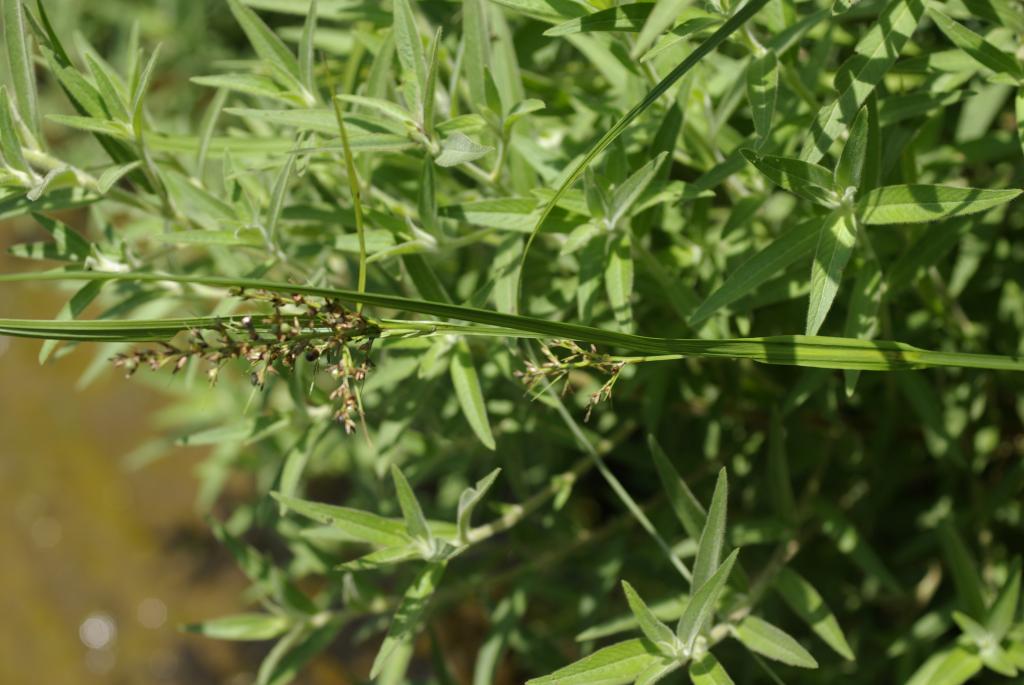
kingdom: Plantae
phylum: Tracheophyta
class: Liliopsida
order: Poales
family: Cyperaceae
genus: Scleria
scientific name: Scleria radula
